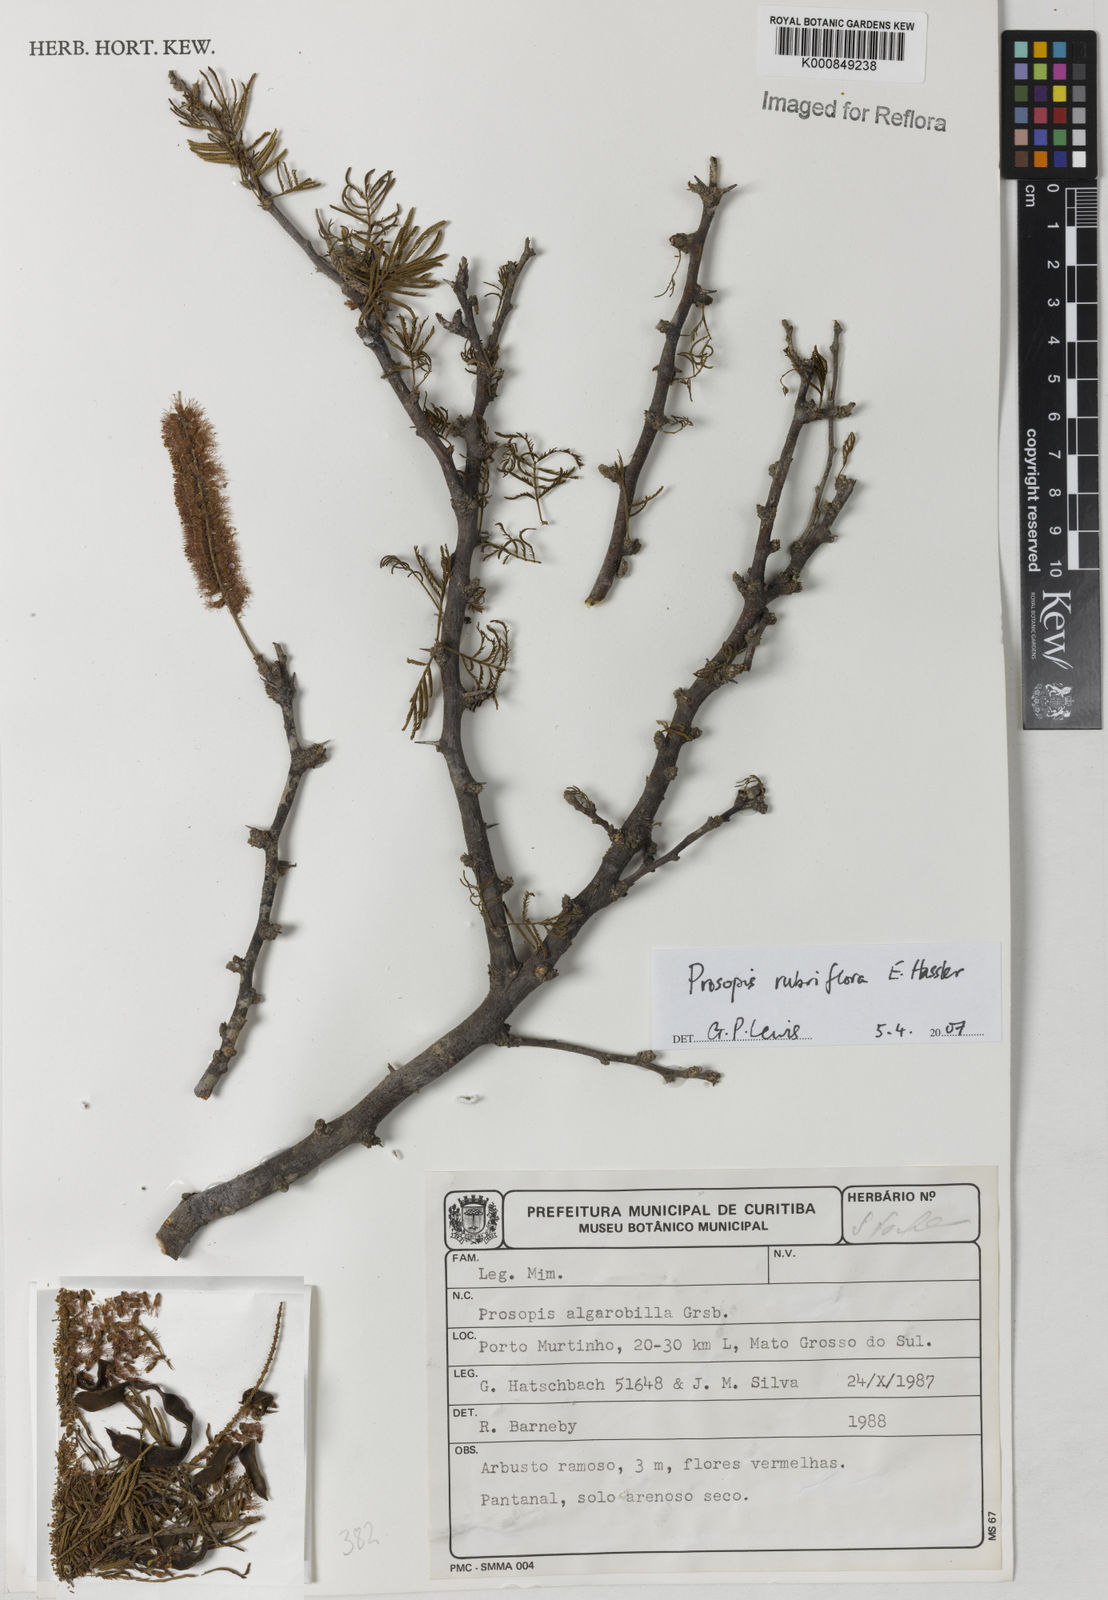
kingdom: Plantae
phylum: Tracheophyta
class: Magnoliopsida
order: Fabales
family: Fabaceae
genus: Prosopis
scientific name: Prosopis rubriflora
